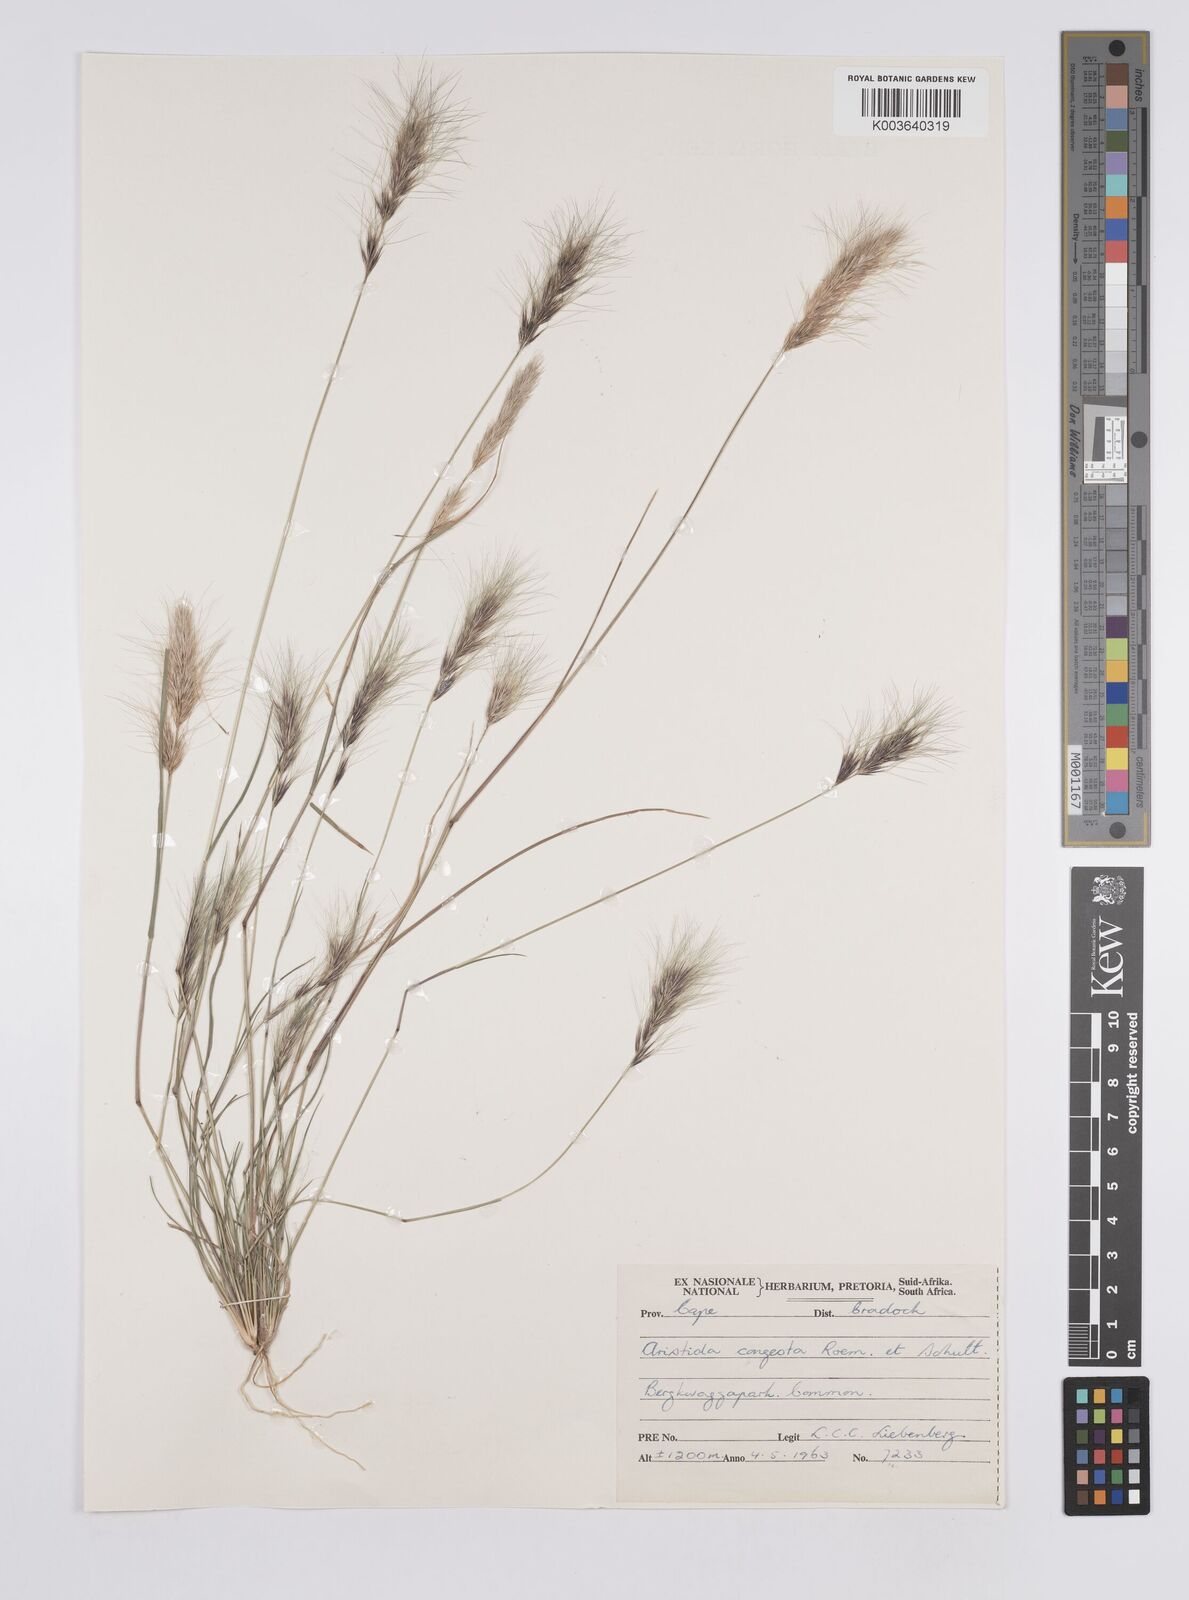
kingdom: Plantae
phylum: Tracheophyta
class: Liliopsida
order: Poales
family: Poaceae
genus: Aristida
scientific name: Aristida congesta
